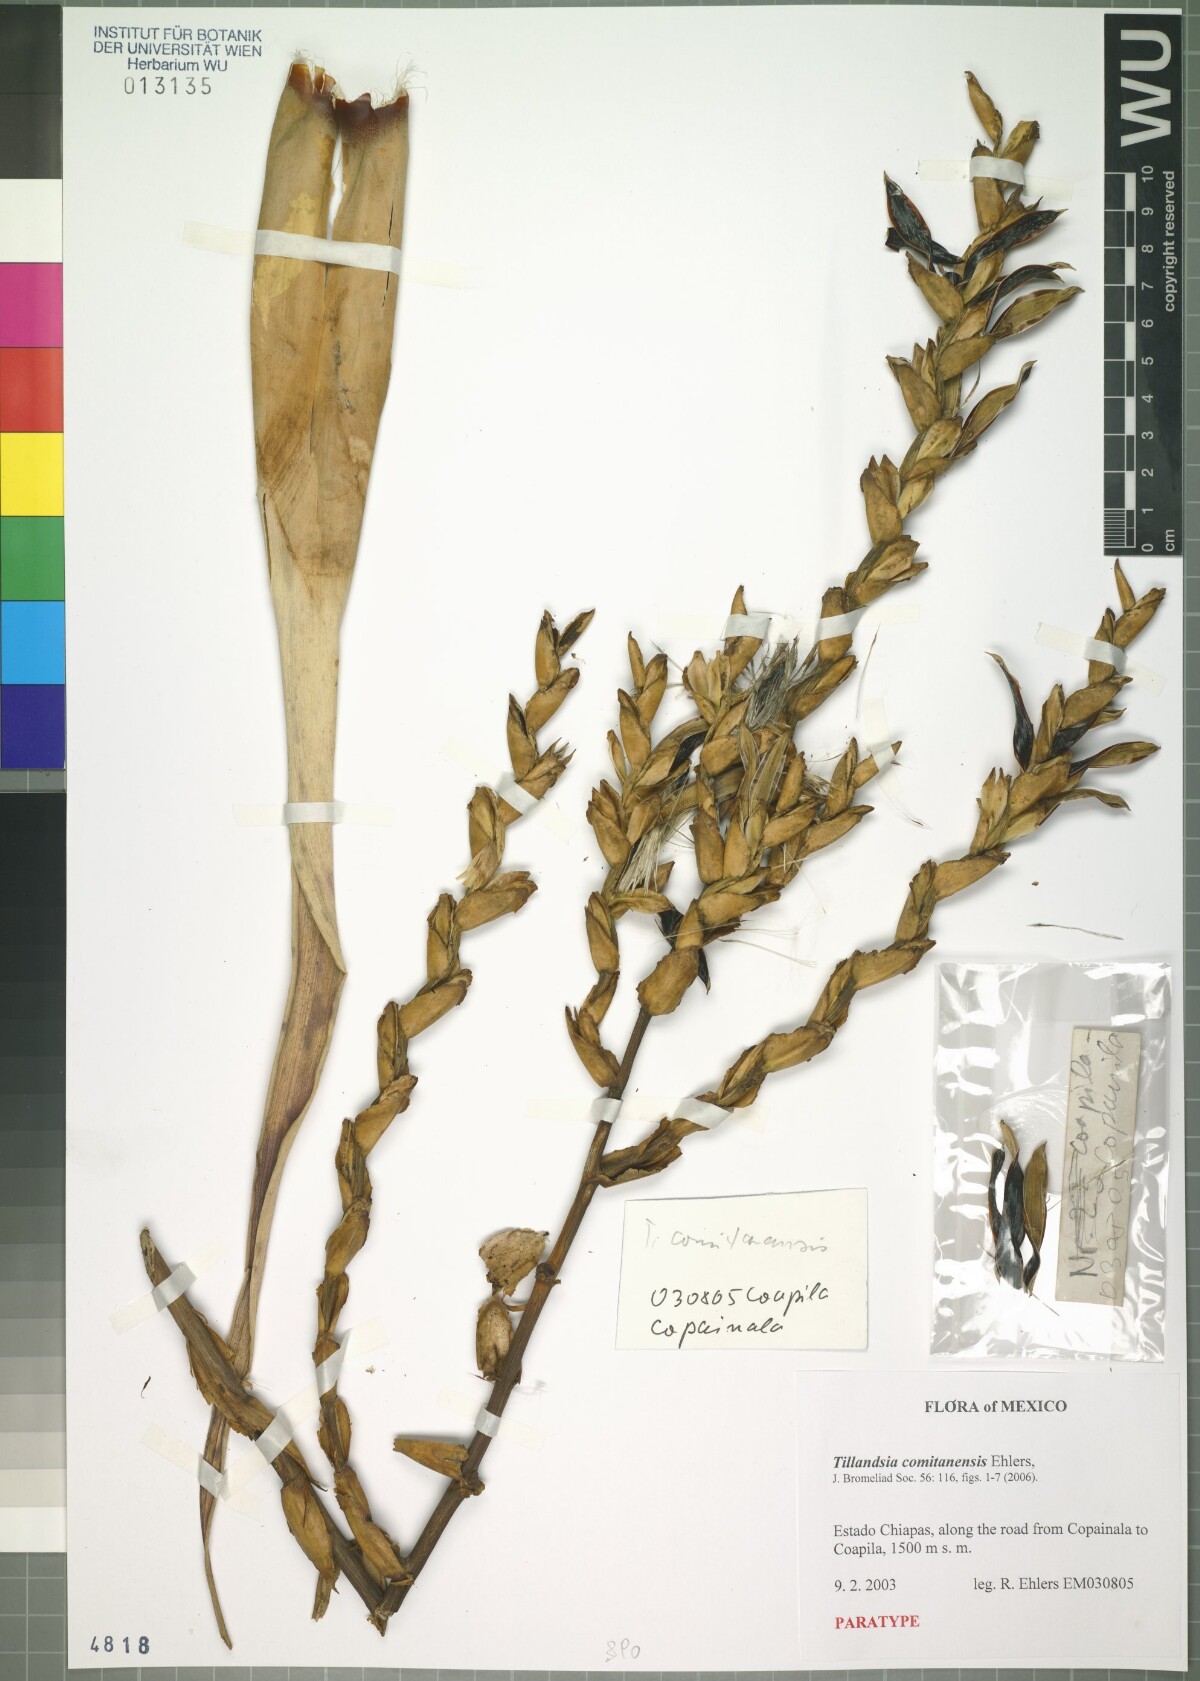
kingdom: Plantae
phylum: Tracheophyta
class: Liliopsida
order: Poales
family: Bromeliaceae
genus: Tillandsia
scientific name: Tillandsia comitanensis
